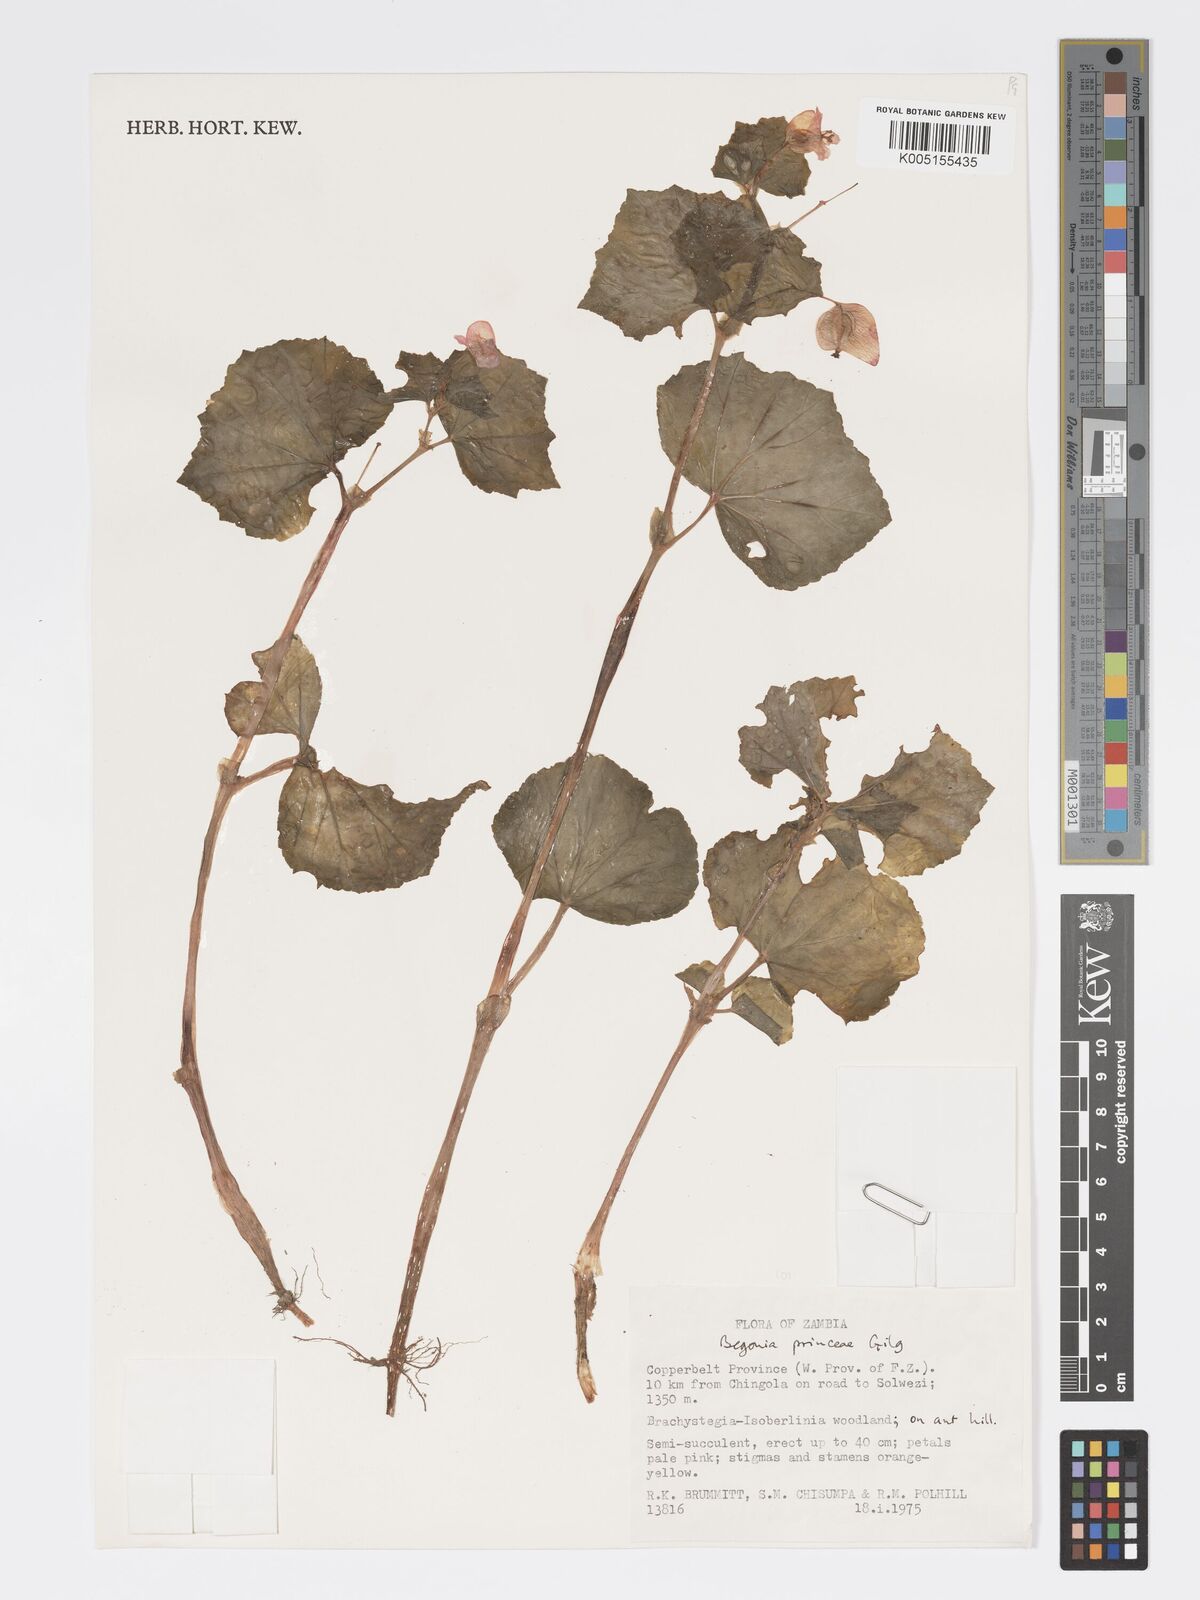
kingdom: Plantae
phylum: Tracheophyta
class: Magnoliopsida
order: Cucurbitales
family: Begoniaceae
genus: Begonia
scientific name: Begonia princeae
